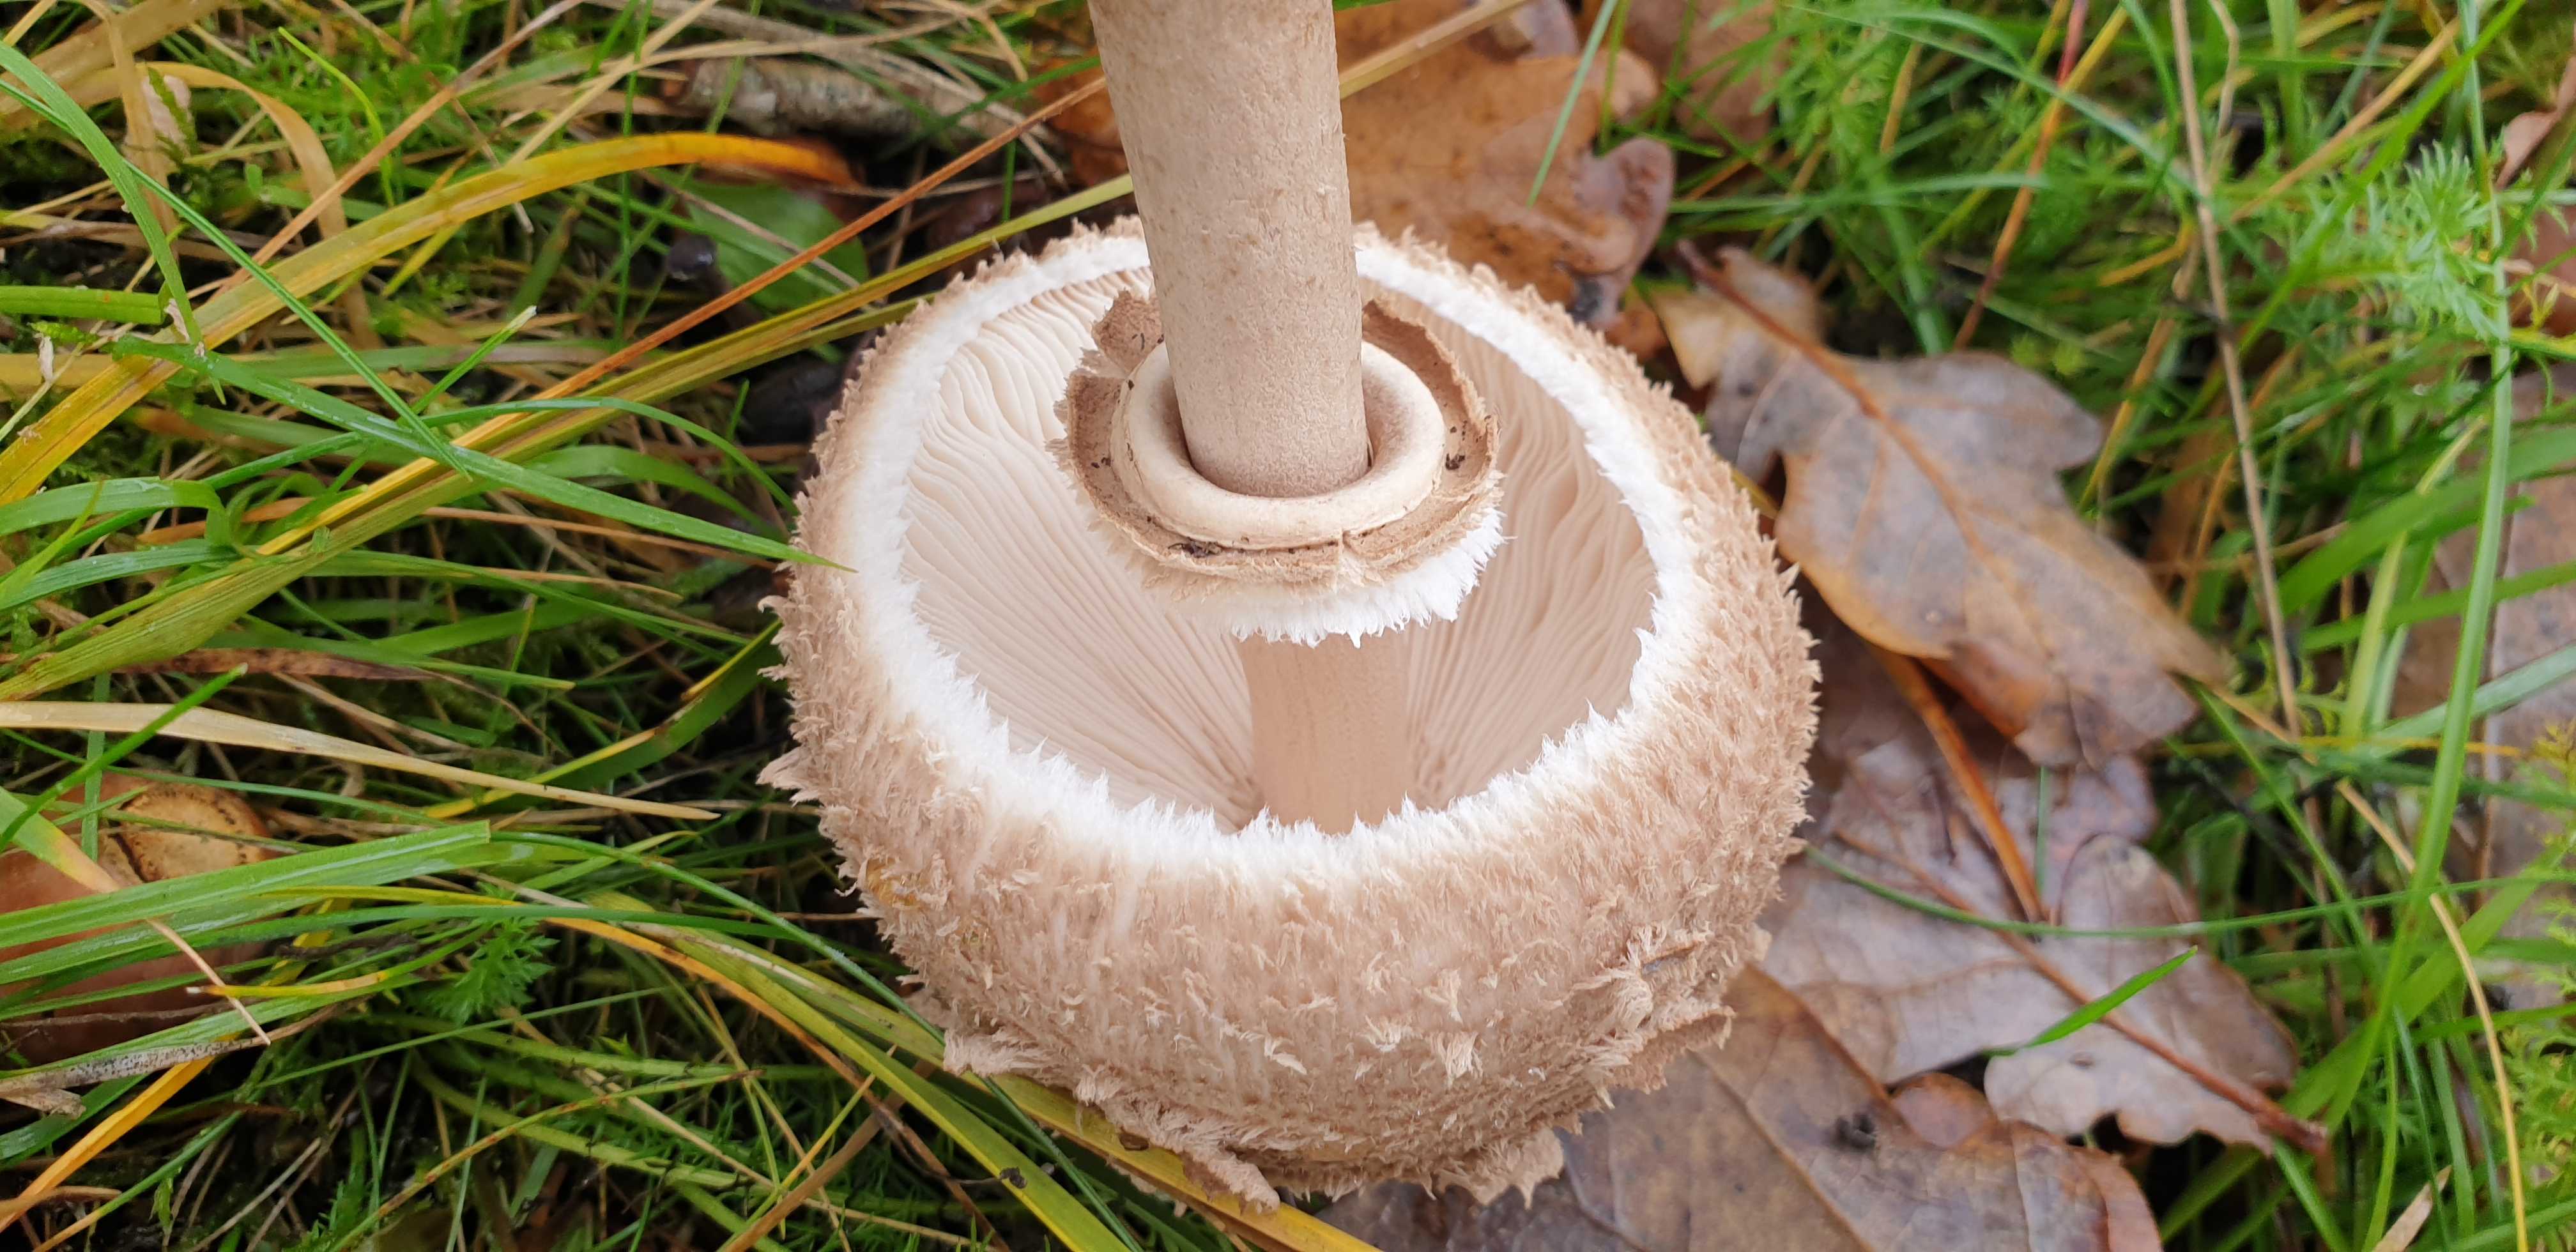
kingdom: Fungi
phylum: Basidiomycota
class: Agaricomycetes
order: Agaricales
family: Agaricaceae
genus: Macrolepiota
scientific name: Macrolepiota procera
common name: stor kæmpeparasolhat
